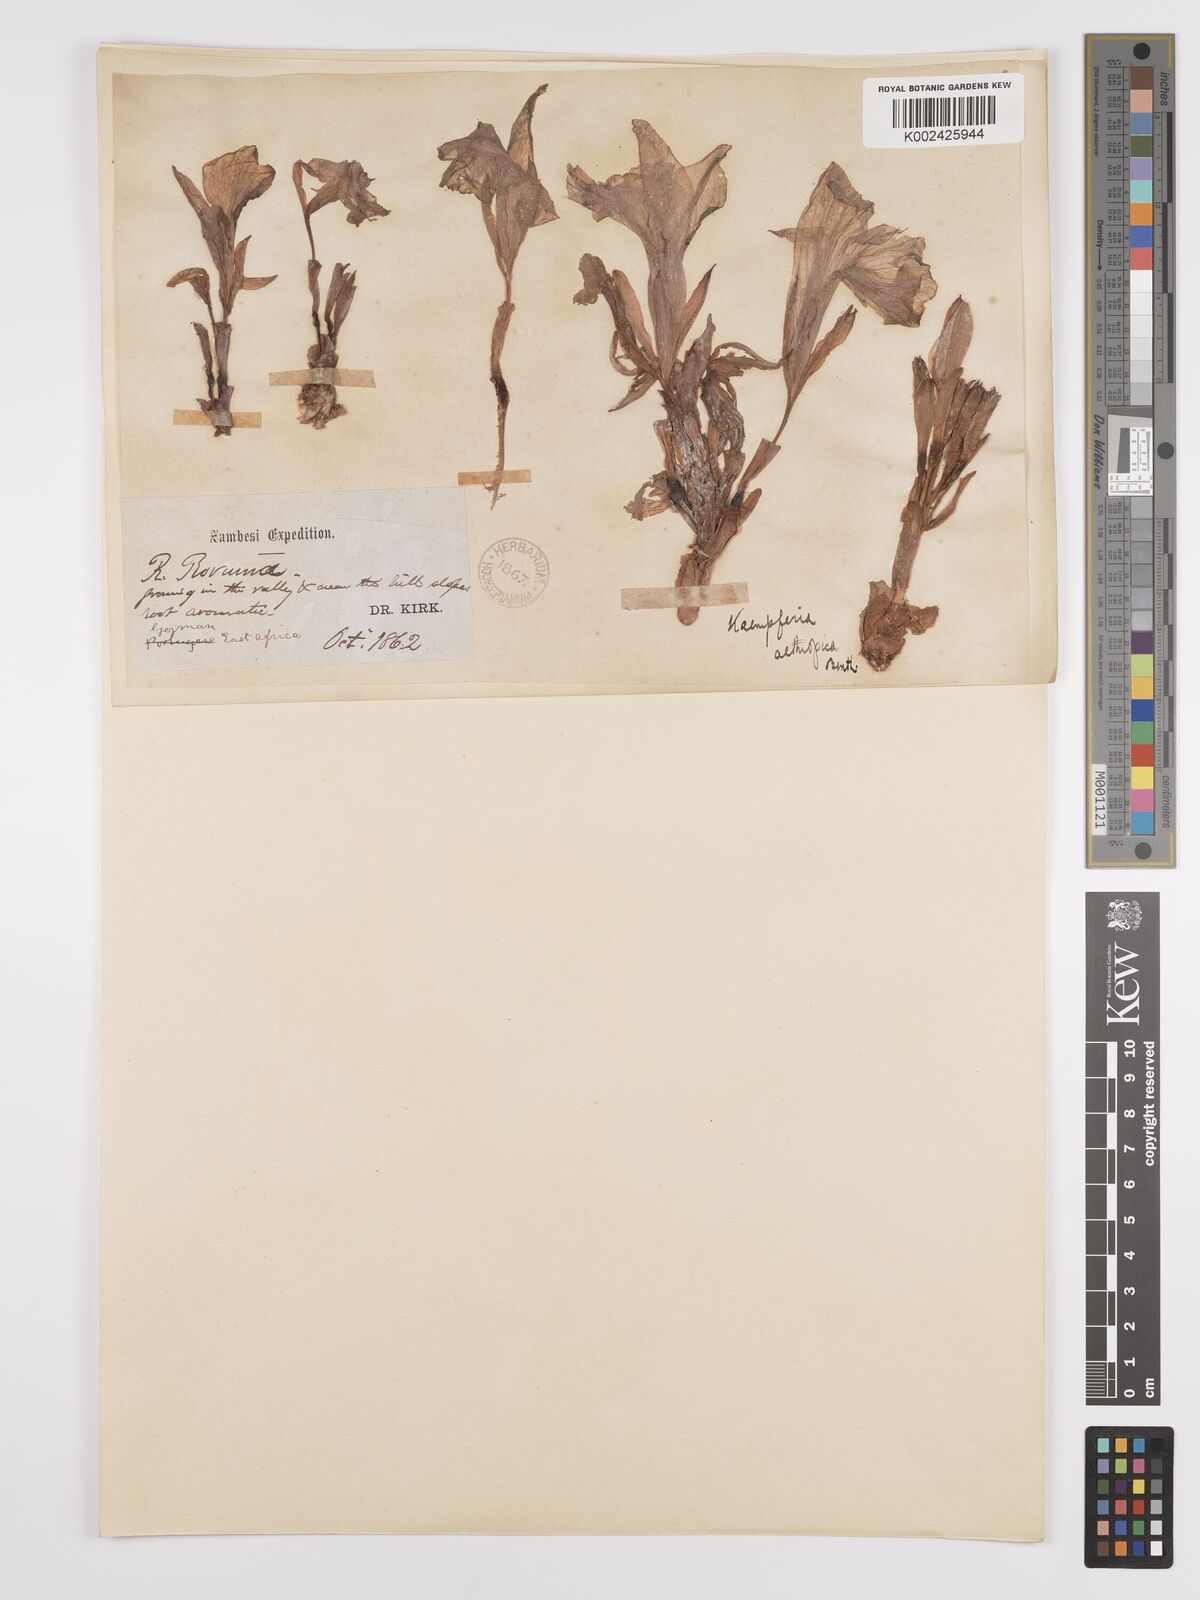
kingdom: Plantae
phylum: Tracheophyta
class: Liliopsida
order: Zingiberales
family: Zingiberaceae
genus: Siphonochilus
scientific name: Siphonochilus aethiopicus
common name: African-ginger
